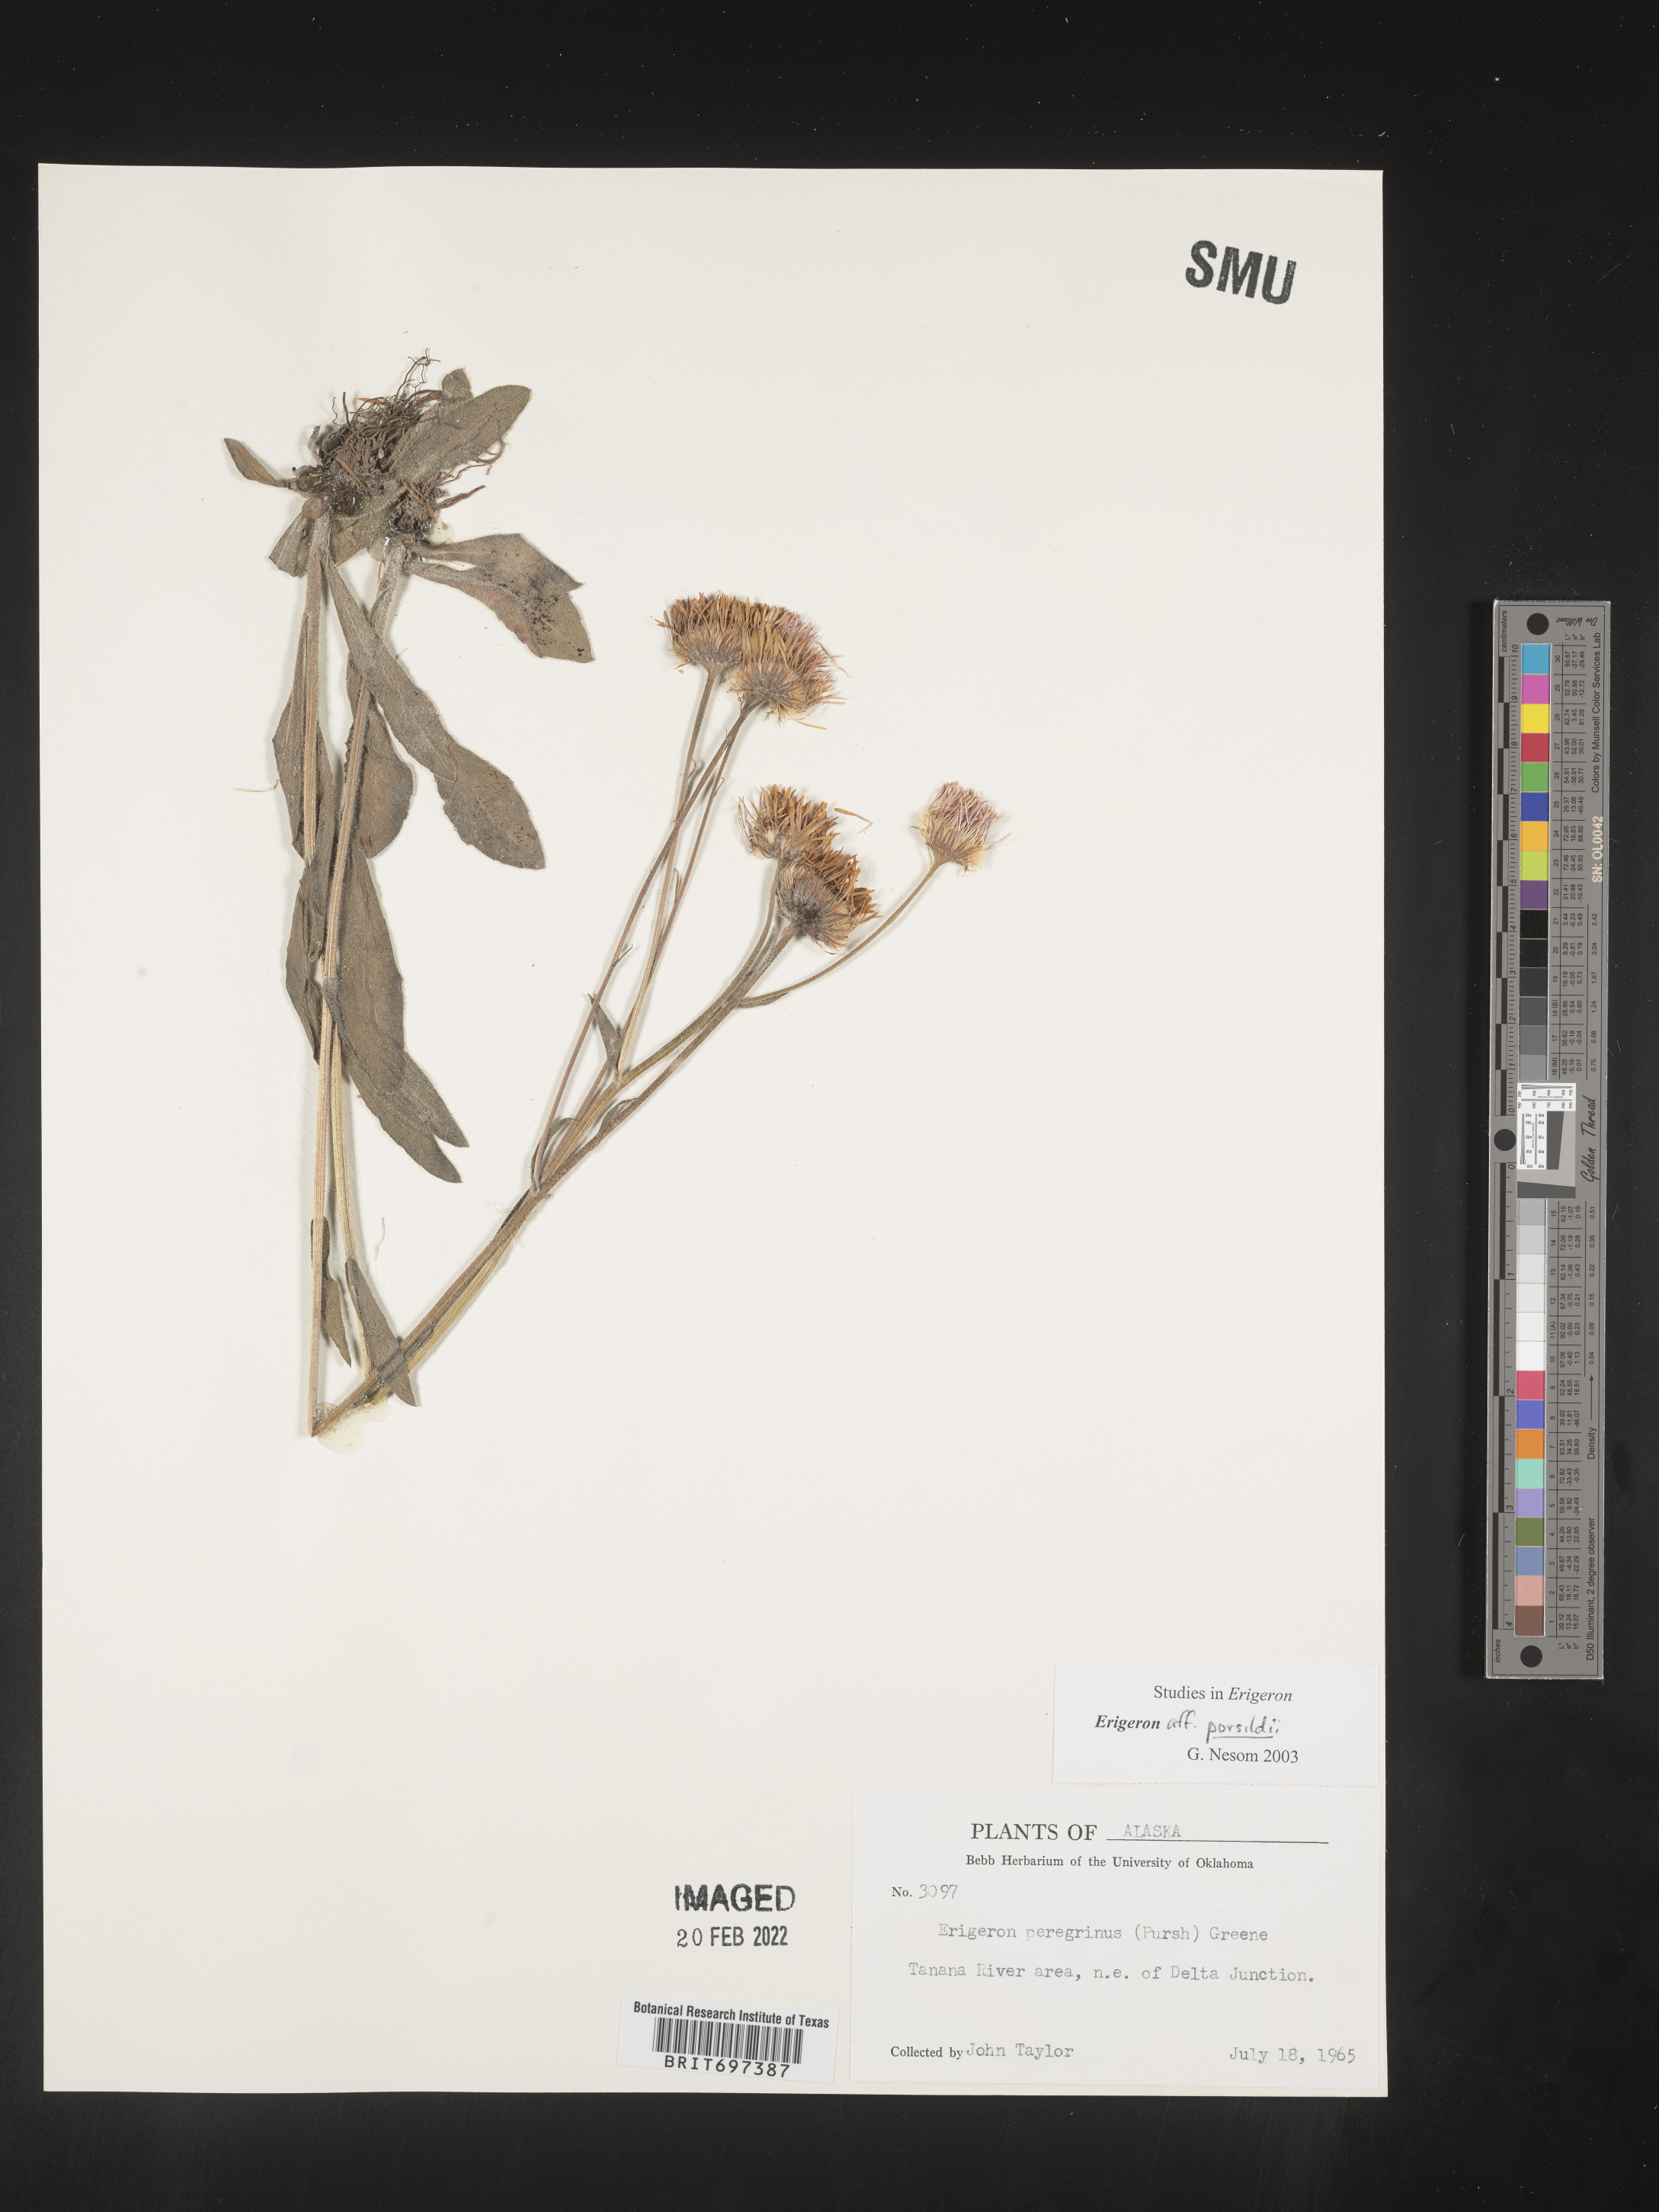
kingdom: Plantae
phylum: Tracheophyta
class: Magnoliopsida
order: Asterales
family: Asteraceae
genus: Erigeron
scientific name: Erigeron porsildii
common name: Porsild's arctic fleabane
